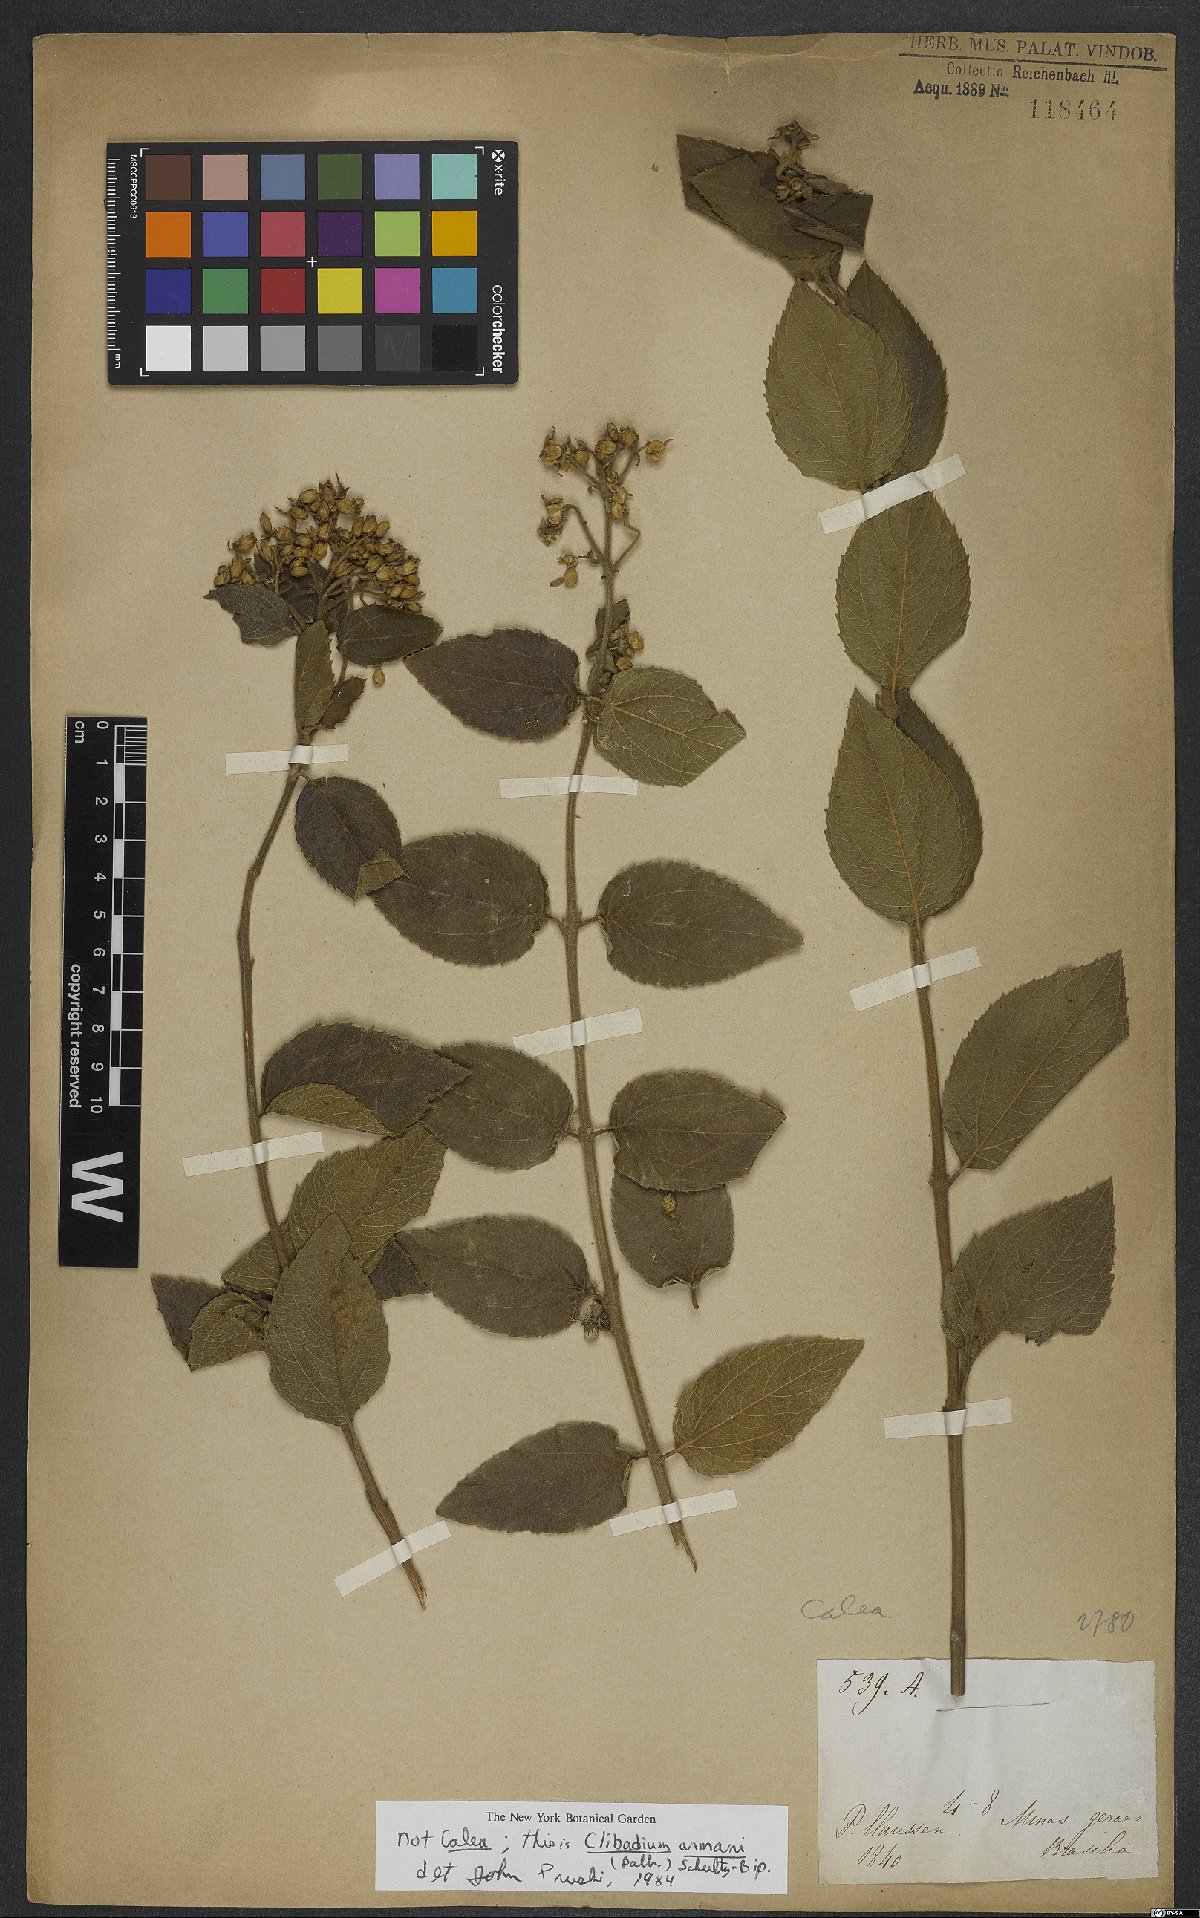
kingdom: Plantae
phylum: Tracheophyta
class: Magnoliopsida
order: Asterales
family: Asteraceae
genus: Clibadium
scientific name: Clibadium armanii
